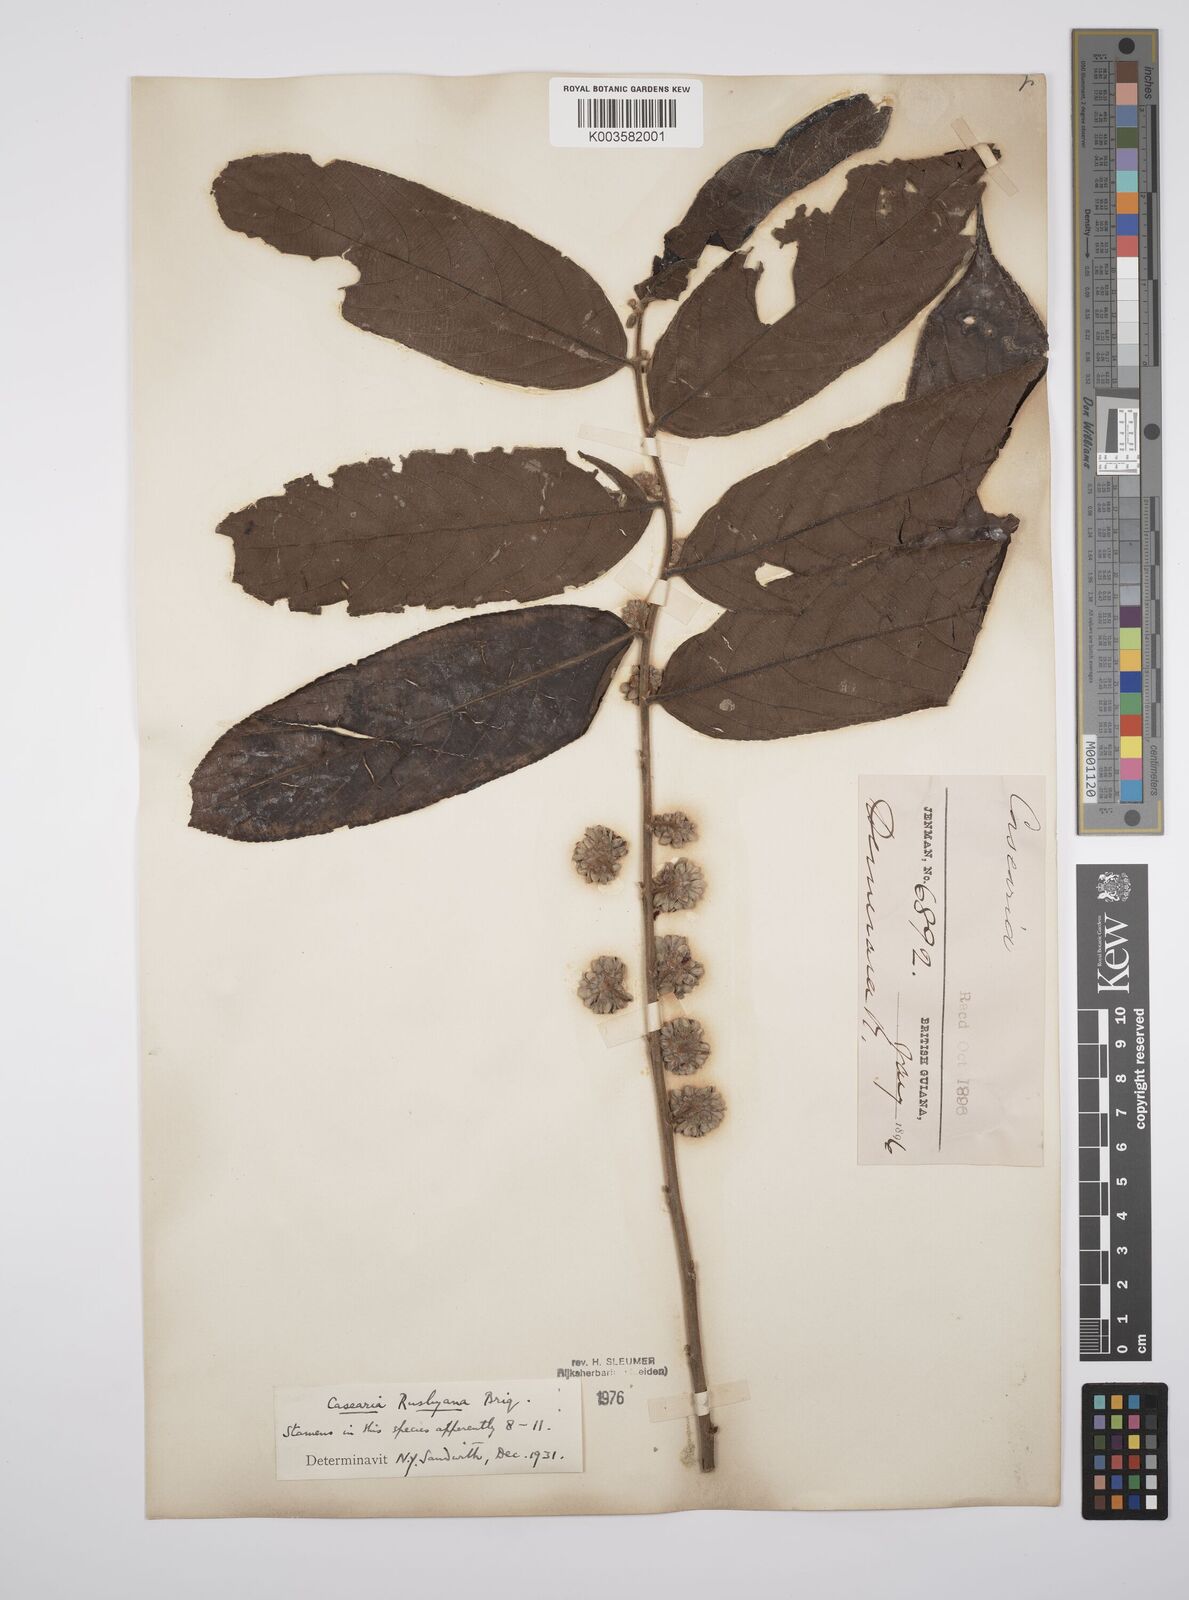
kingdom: Plantae
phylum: Tracheophyta
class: Magnoliopsida
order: Malpighiales
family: Salicaceae
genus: Casearia
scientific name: Casearia rusbyana
